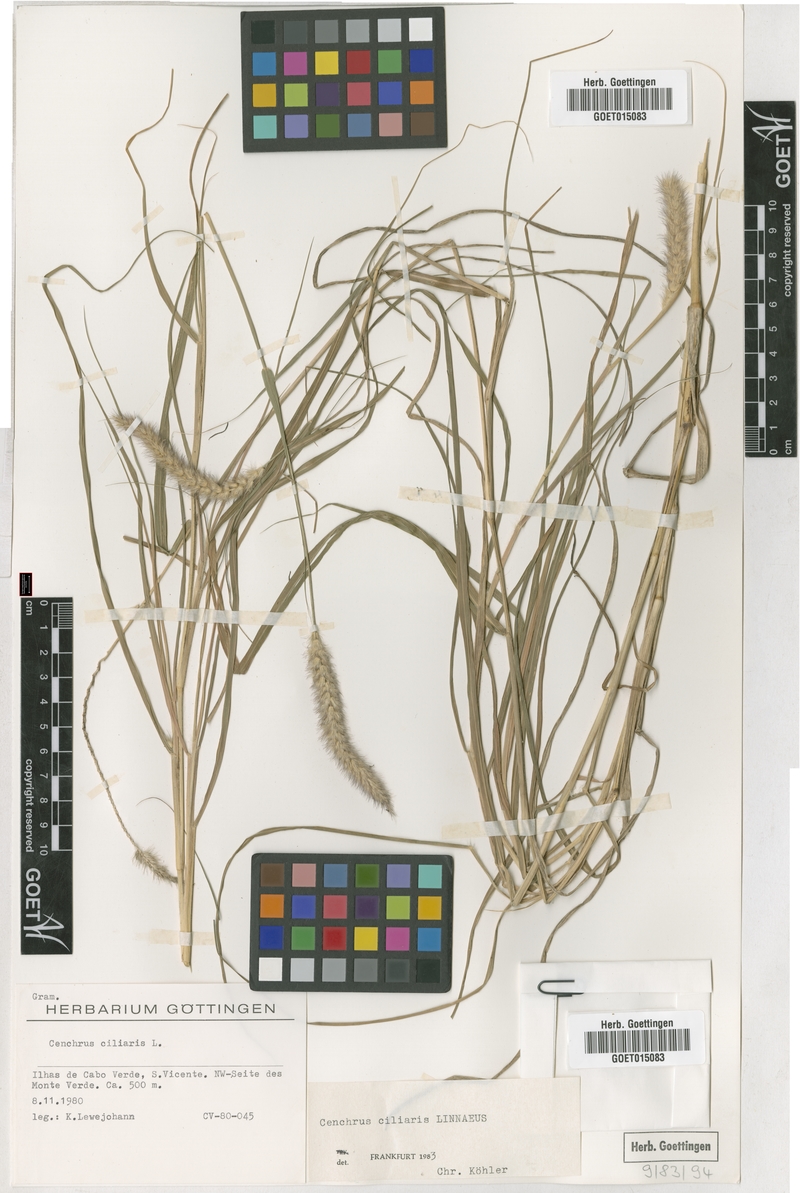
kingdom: Plantae
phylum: Tracheophyta
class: Liliopsida
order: Poales
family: Poaceae
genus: Cenchrus
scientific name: Cenchrus ciliaris
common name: Buffelgrass
